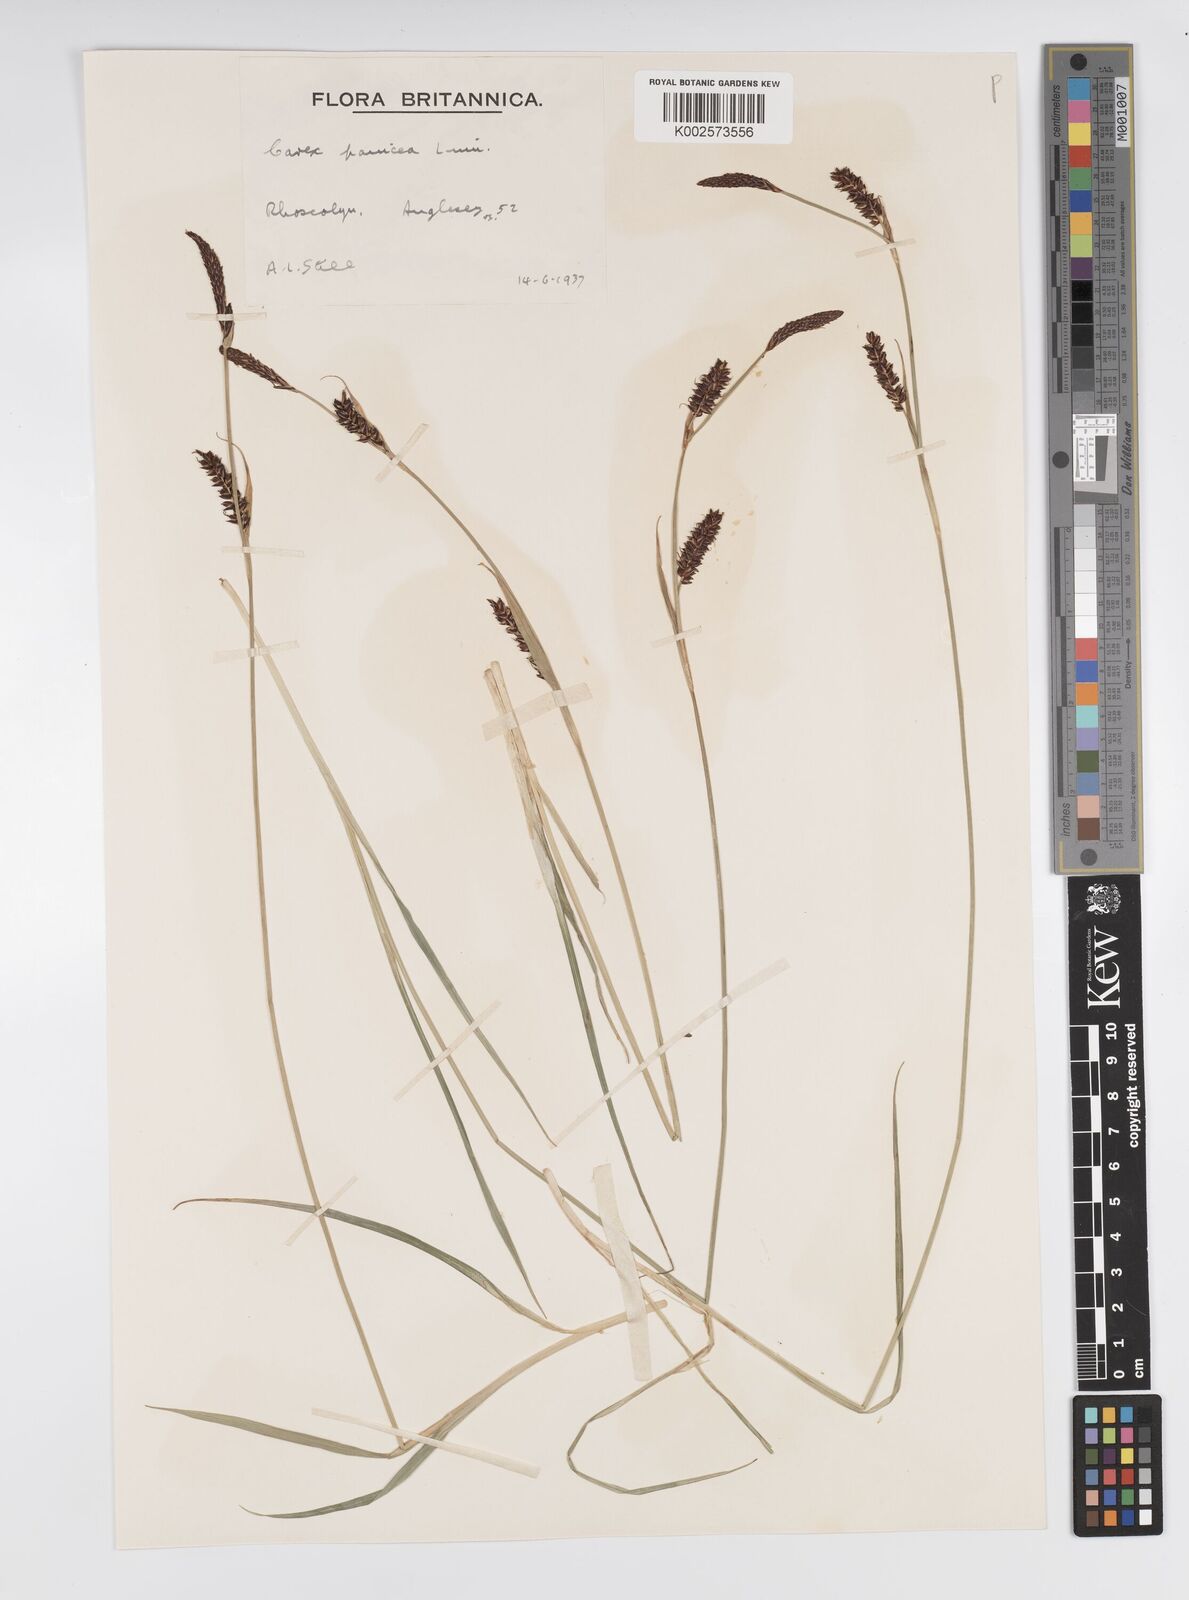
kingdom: Plantae
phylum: Tracheophyta
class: Liliopsida
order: Poales
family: Cyperaceae
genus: Carex
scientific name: Carex panicea
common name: Carnation sedge
